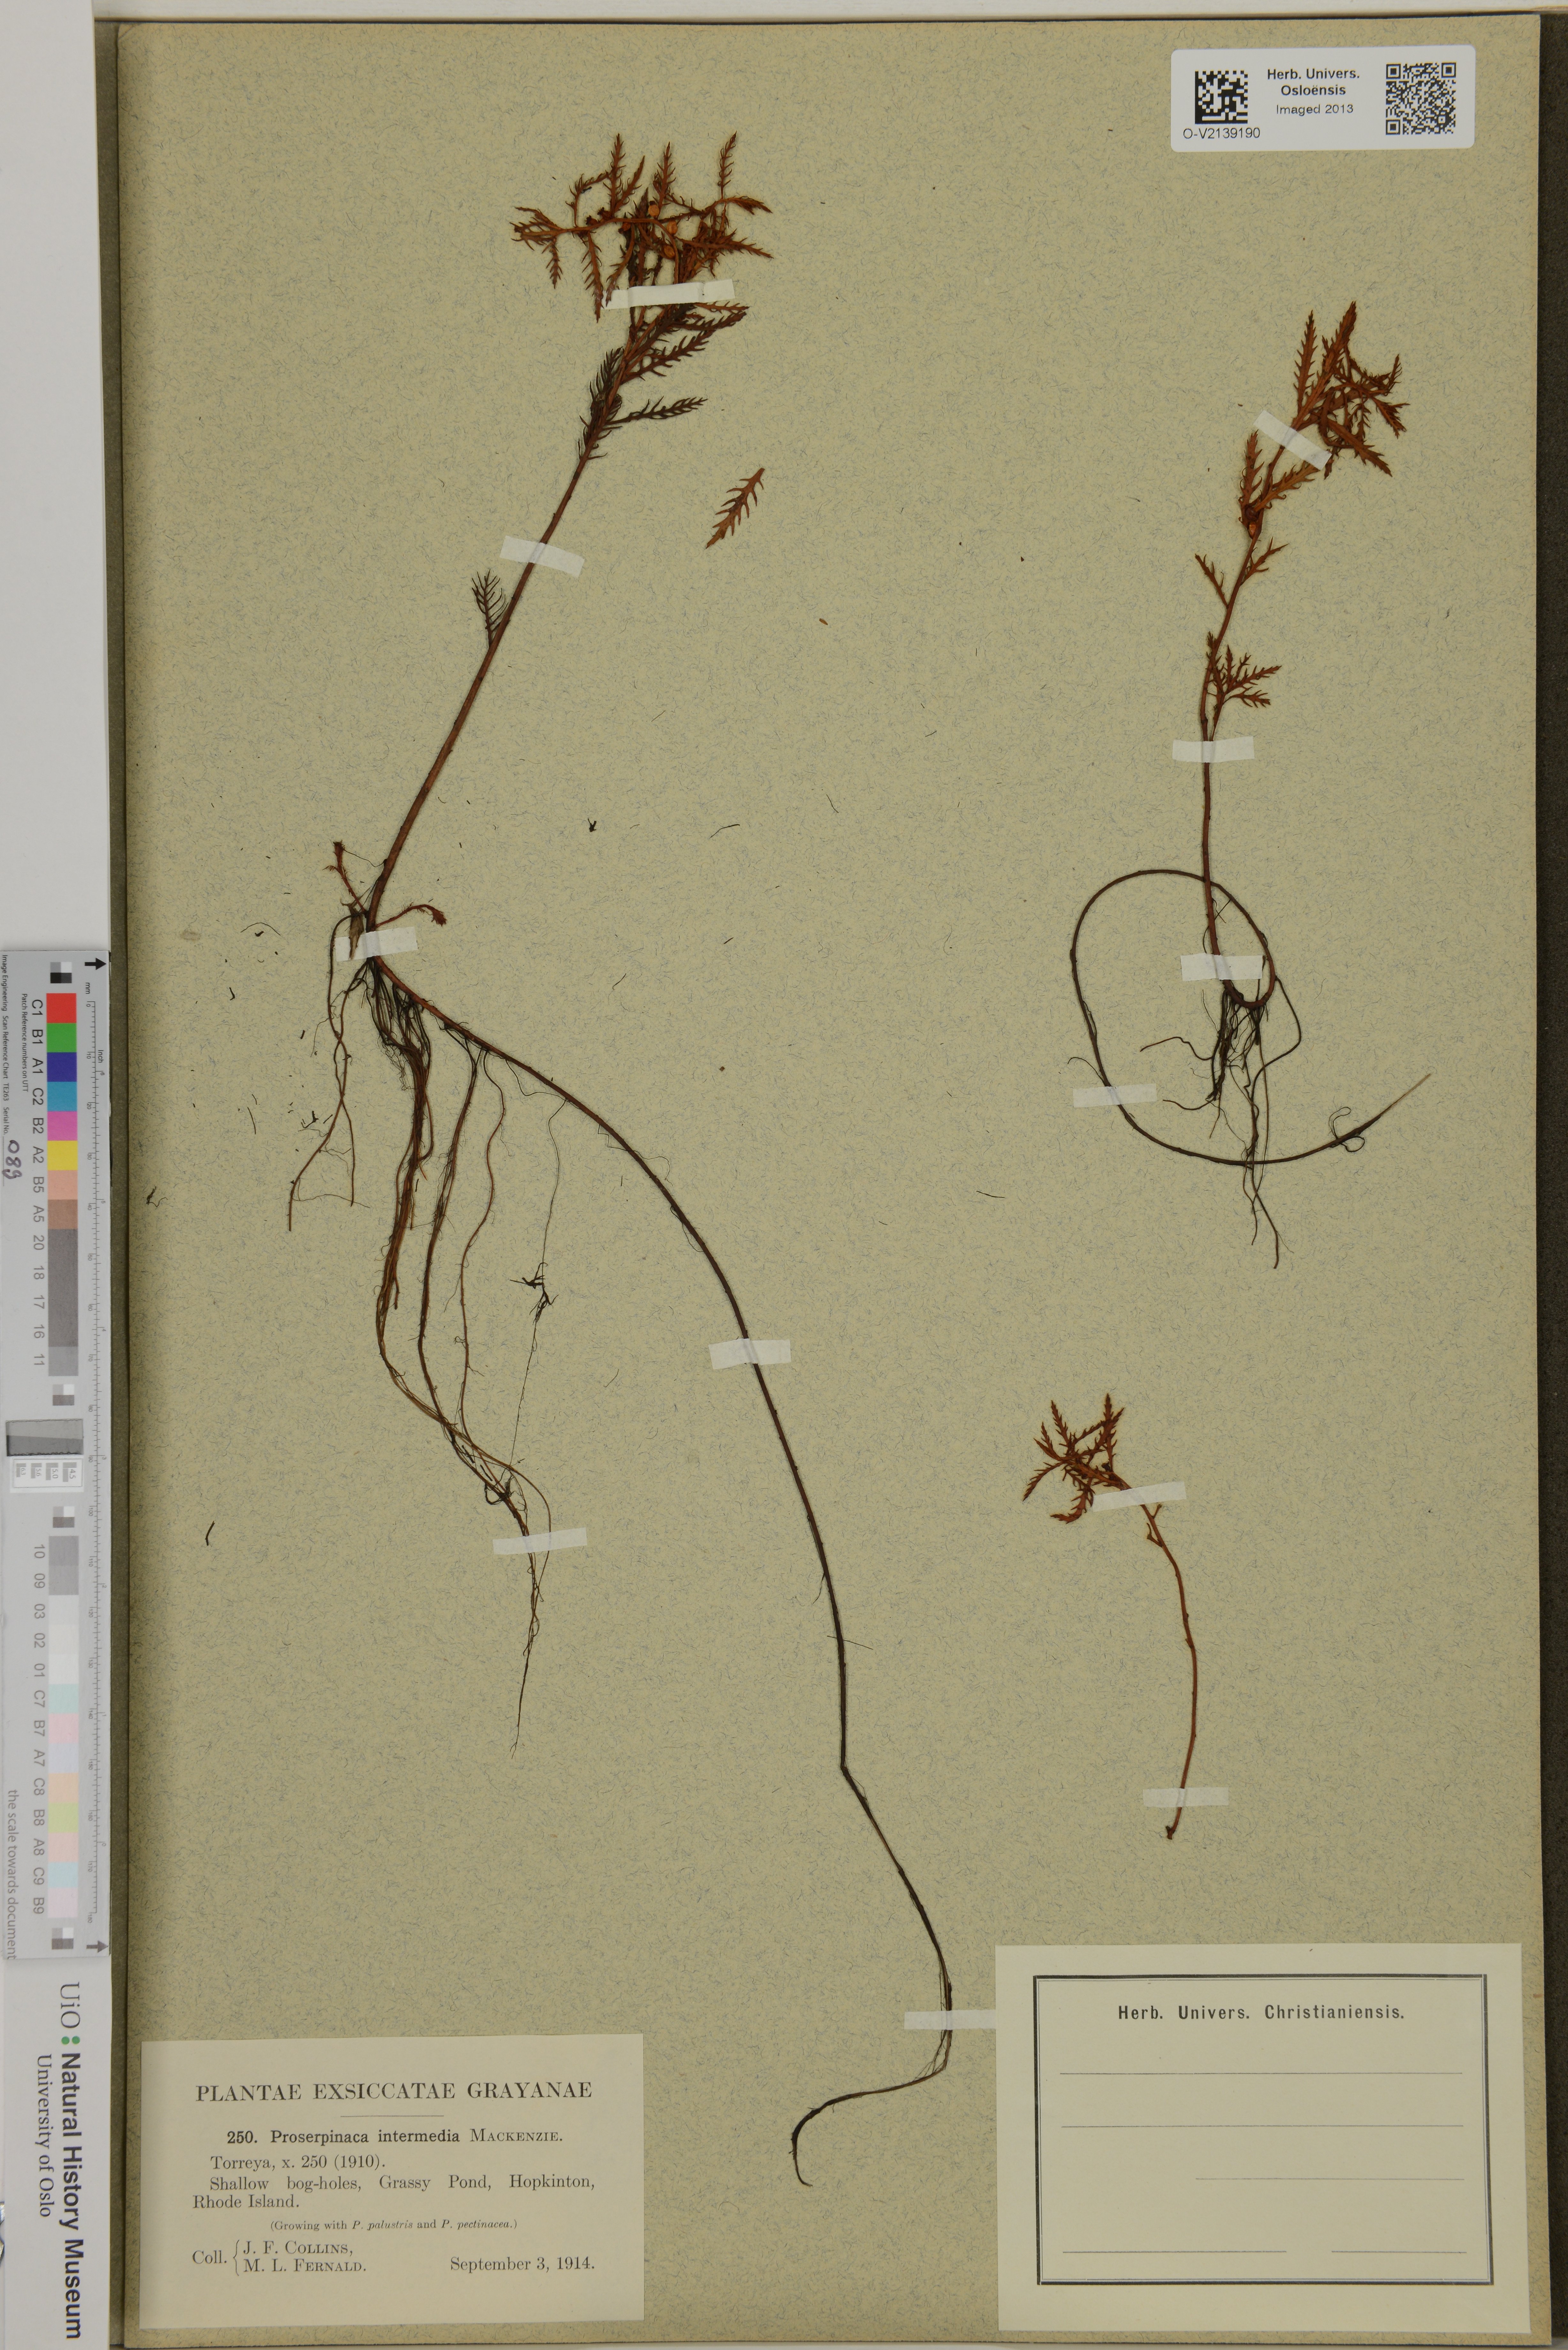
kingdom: Plantae
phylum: Tracheophyta
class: Magnoliopsida
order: Saxifragales
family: Haloragaceae
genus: Proserpinaca
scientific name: Proserpinaca intermedia
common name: Intermediate mermaidweed
